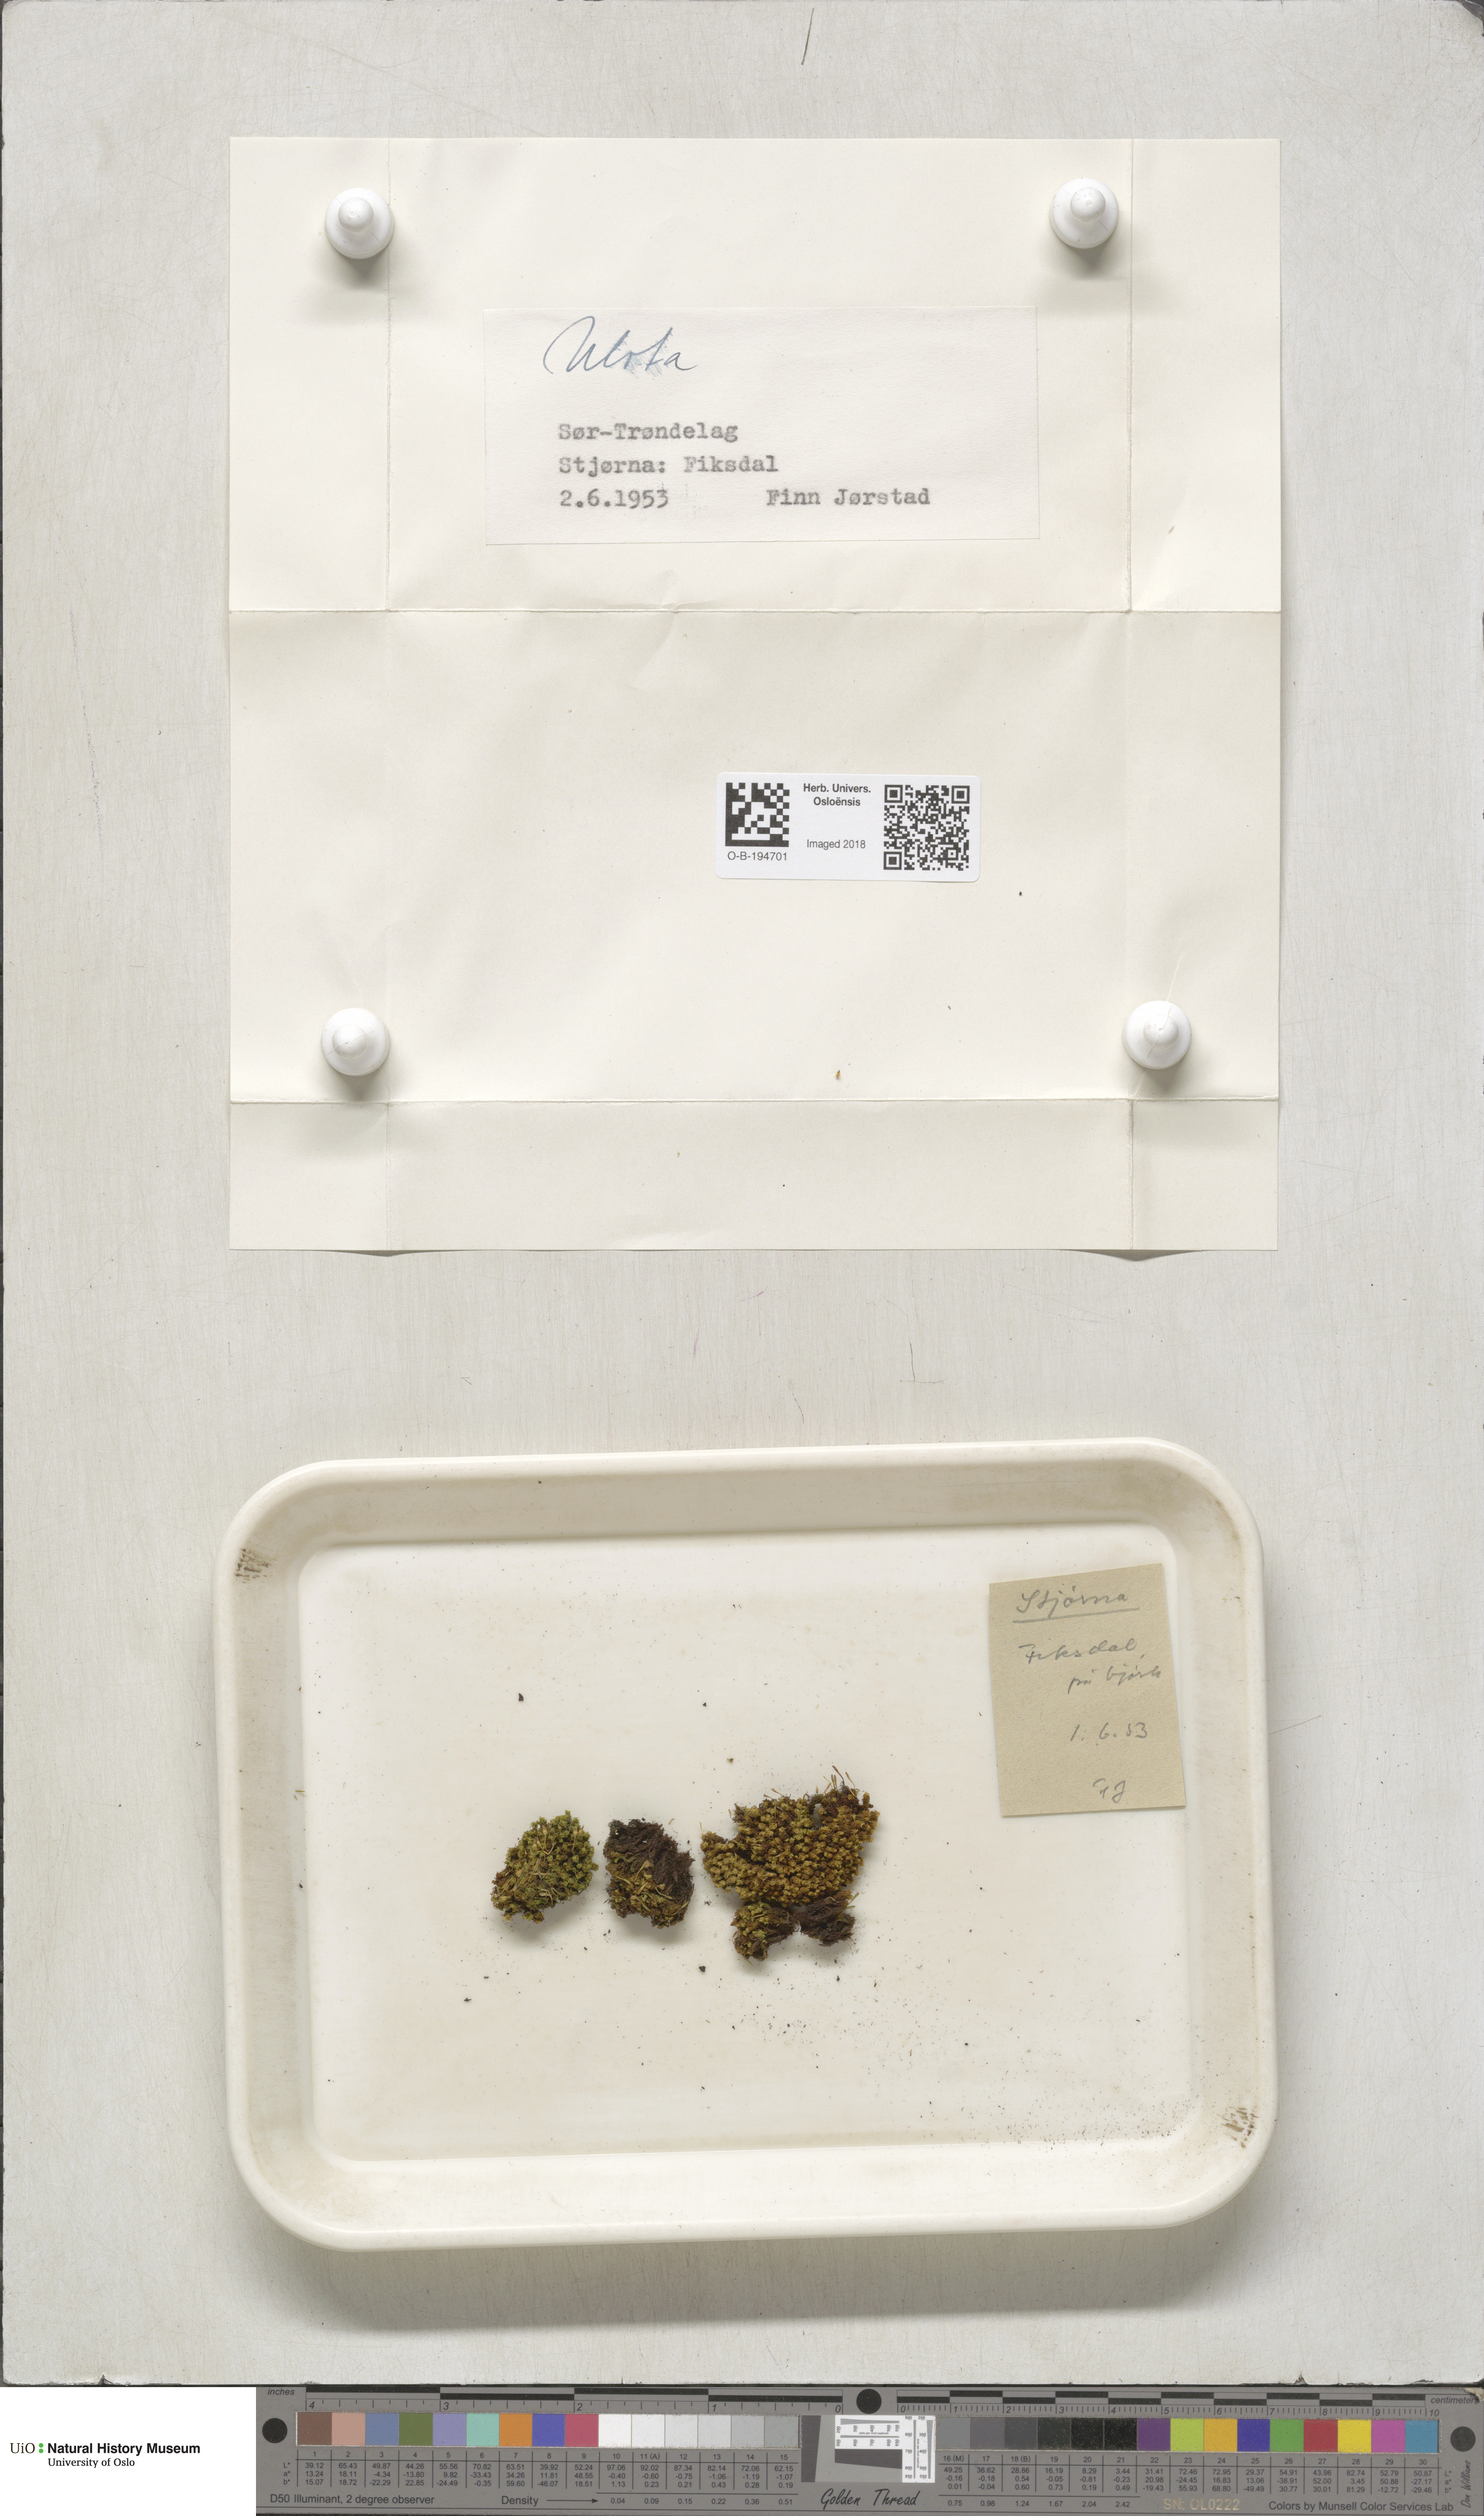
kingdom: Plantae
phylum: Bryophyta
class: Bryopsida
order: Orthotrichales
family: Orthotrichaceae
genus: Ulota
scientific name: Ulota
